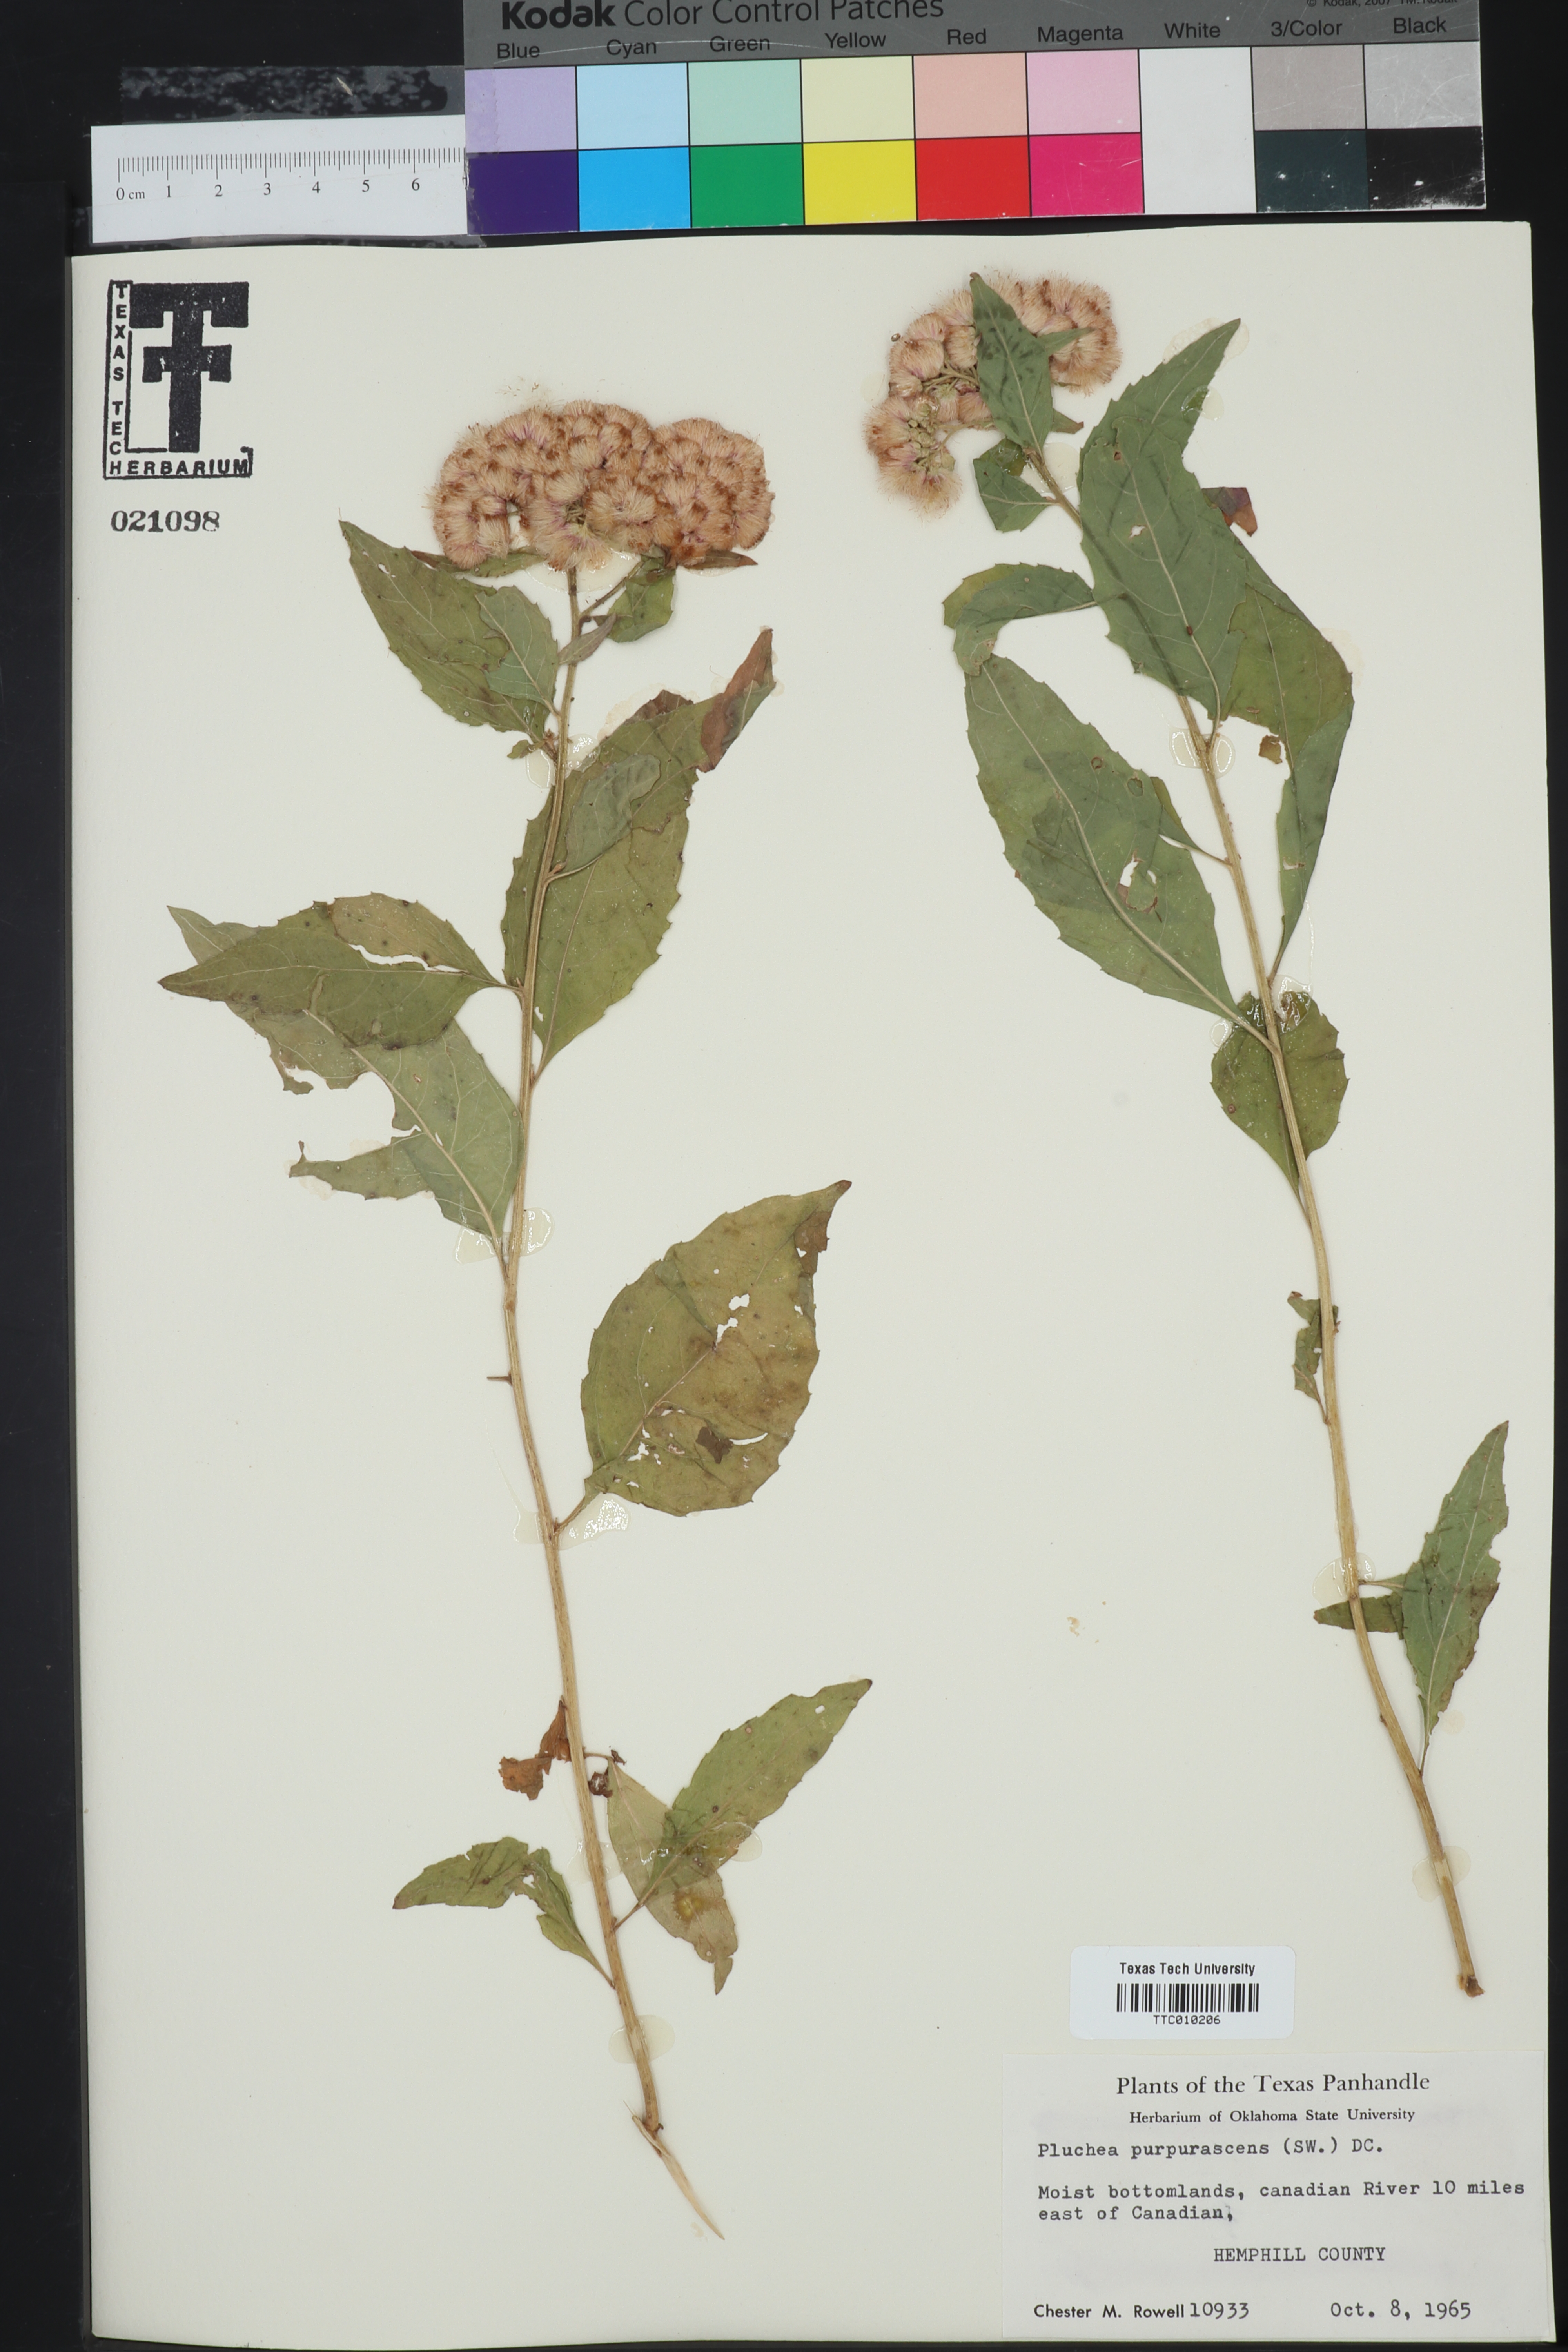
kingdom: Plantae
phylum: Tracheophyta
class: Magnoliopsida
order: Asterales
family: Asteraceae
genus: Pluchea
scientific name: Pluchea odorata
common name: Saltmarsh fleabane
